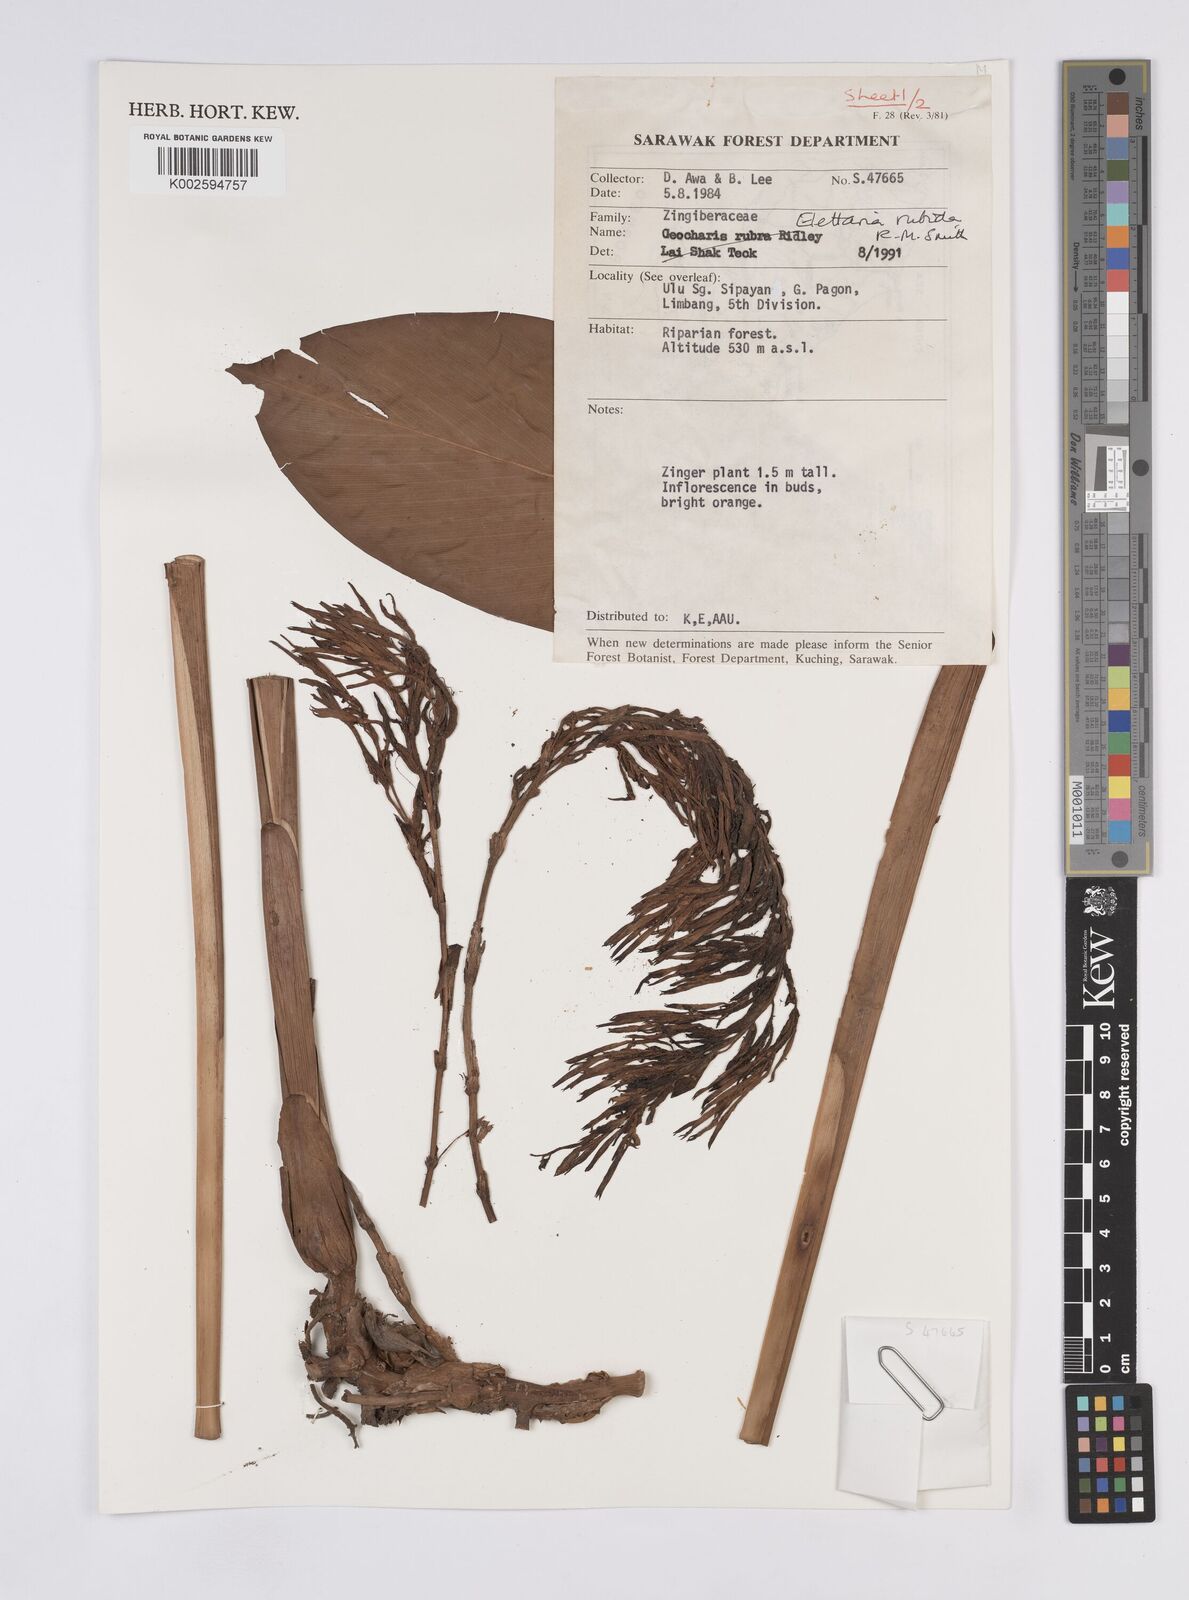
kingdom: Plantae
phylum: Tracheophyta
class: Liliopsida
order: Zingiberales
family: Zingiberaceae
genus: Sulettaria
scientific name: Sulettaria rubida
